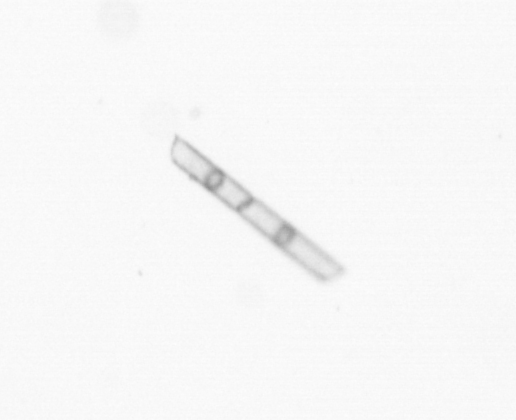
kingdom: Chromista
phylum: Ochrophyta
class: Bacillariophyceae
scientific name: Bacillariophyceae
